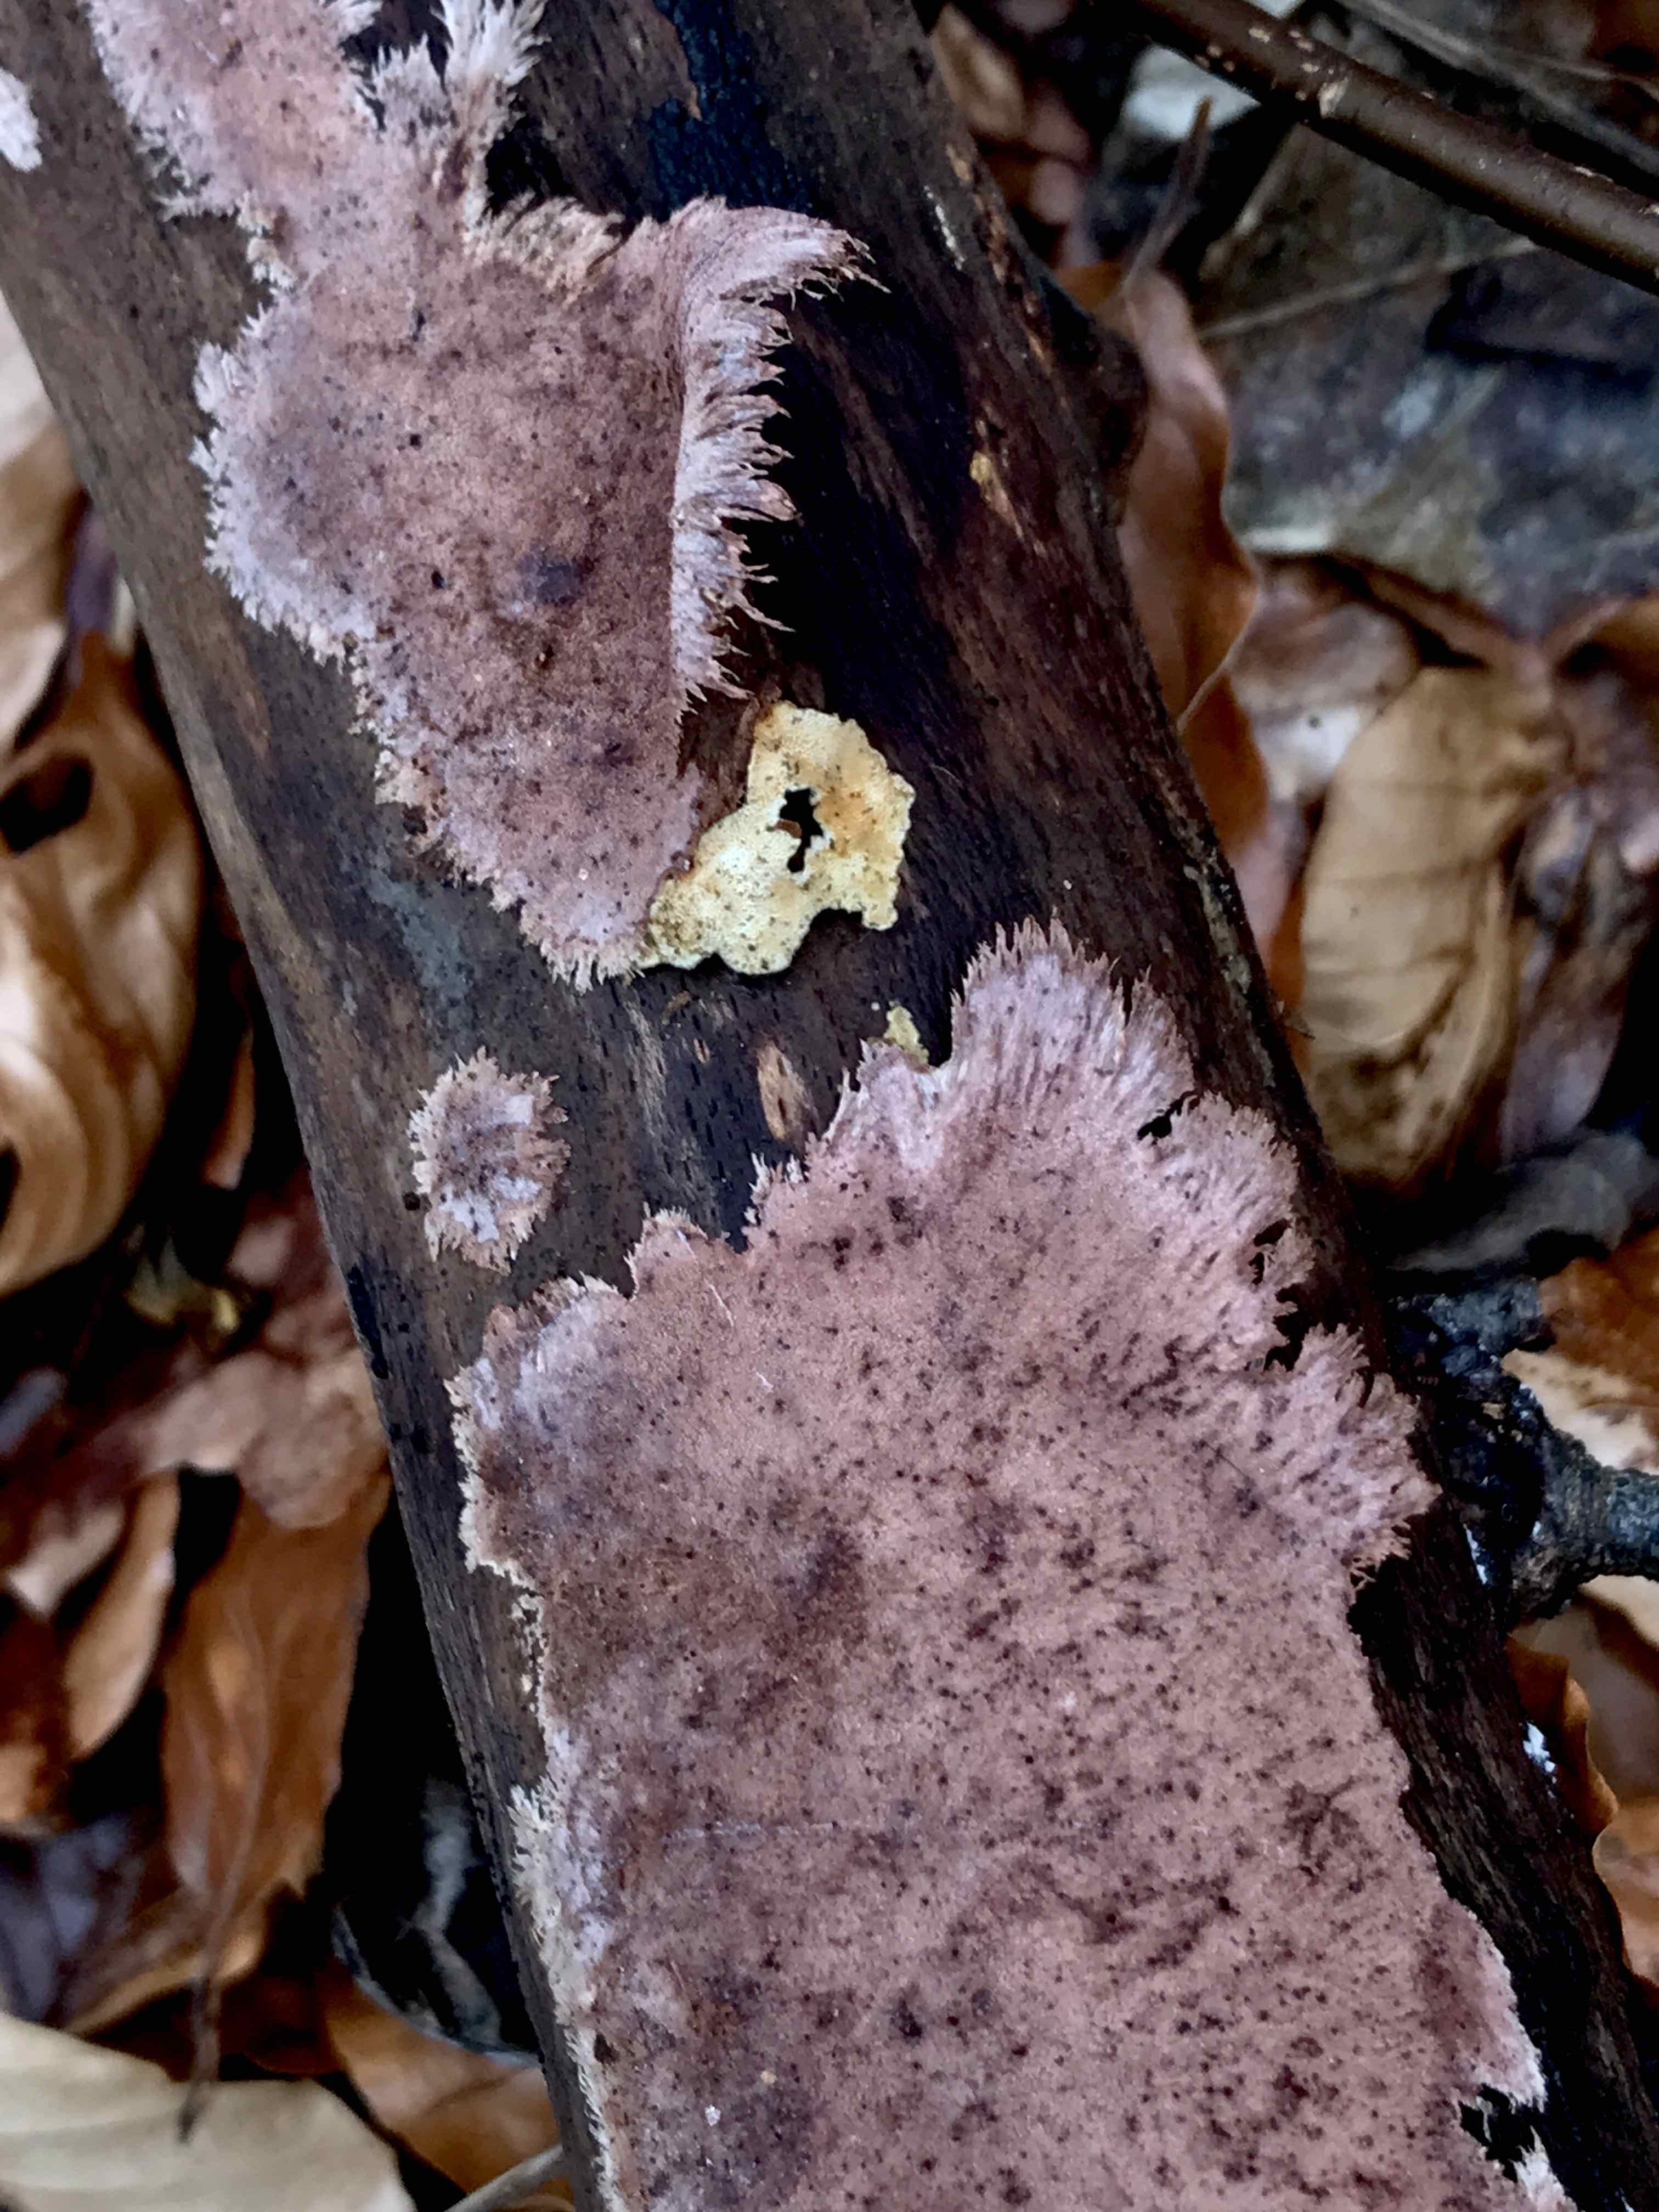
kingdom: Fungi
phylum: Basidiomycota
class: Agaricomycetes
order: Polyporales
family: Steccherinaceae
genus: Steccherinum
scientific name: Steccherinum fimbriatum
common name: trådet skønpig
